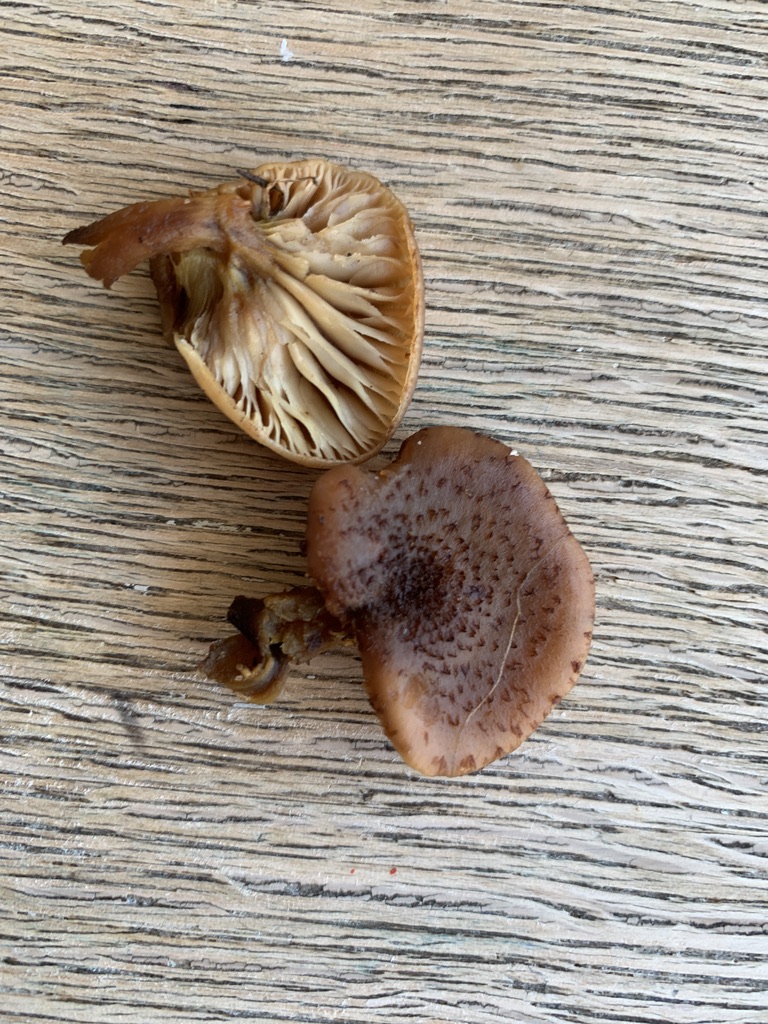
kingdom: Fungi
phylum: Basidiomycota
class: Agaricomycetes
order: Agaricales
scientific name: Agaricales
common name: champignonordenen
